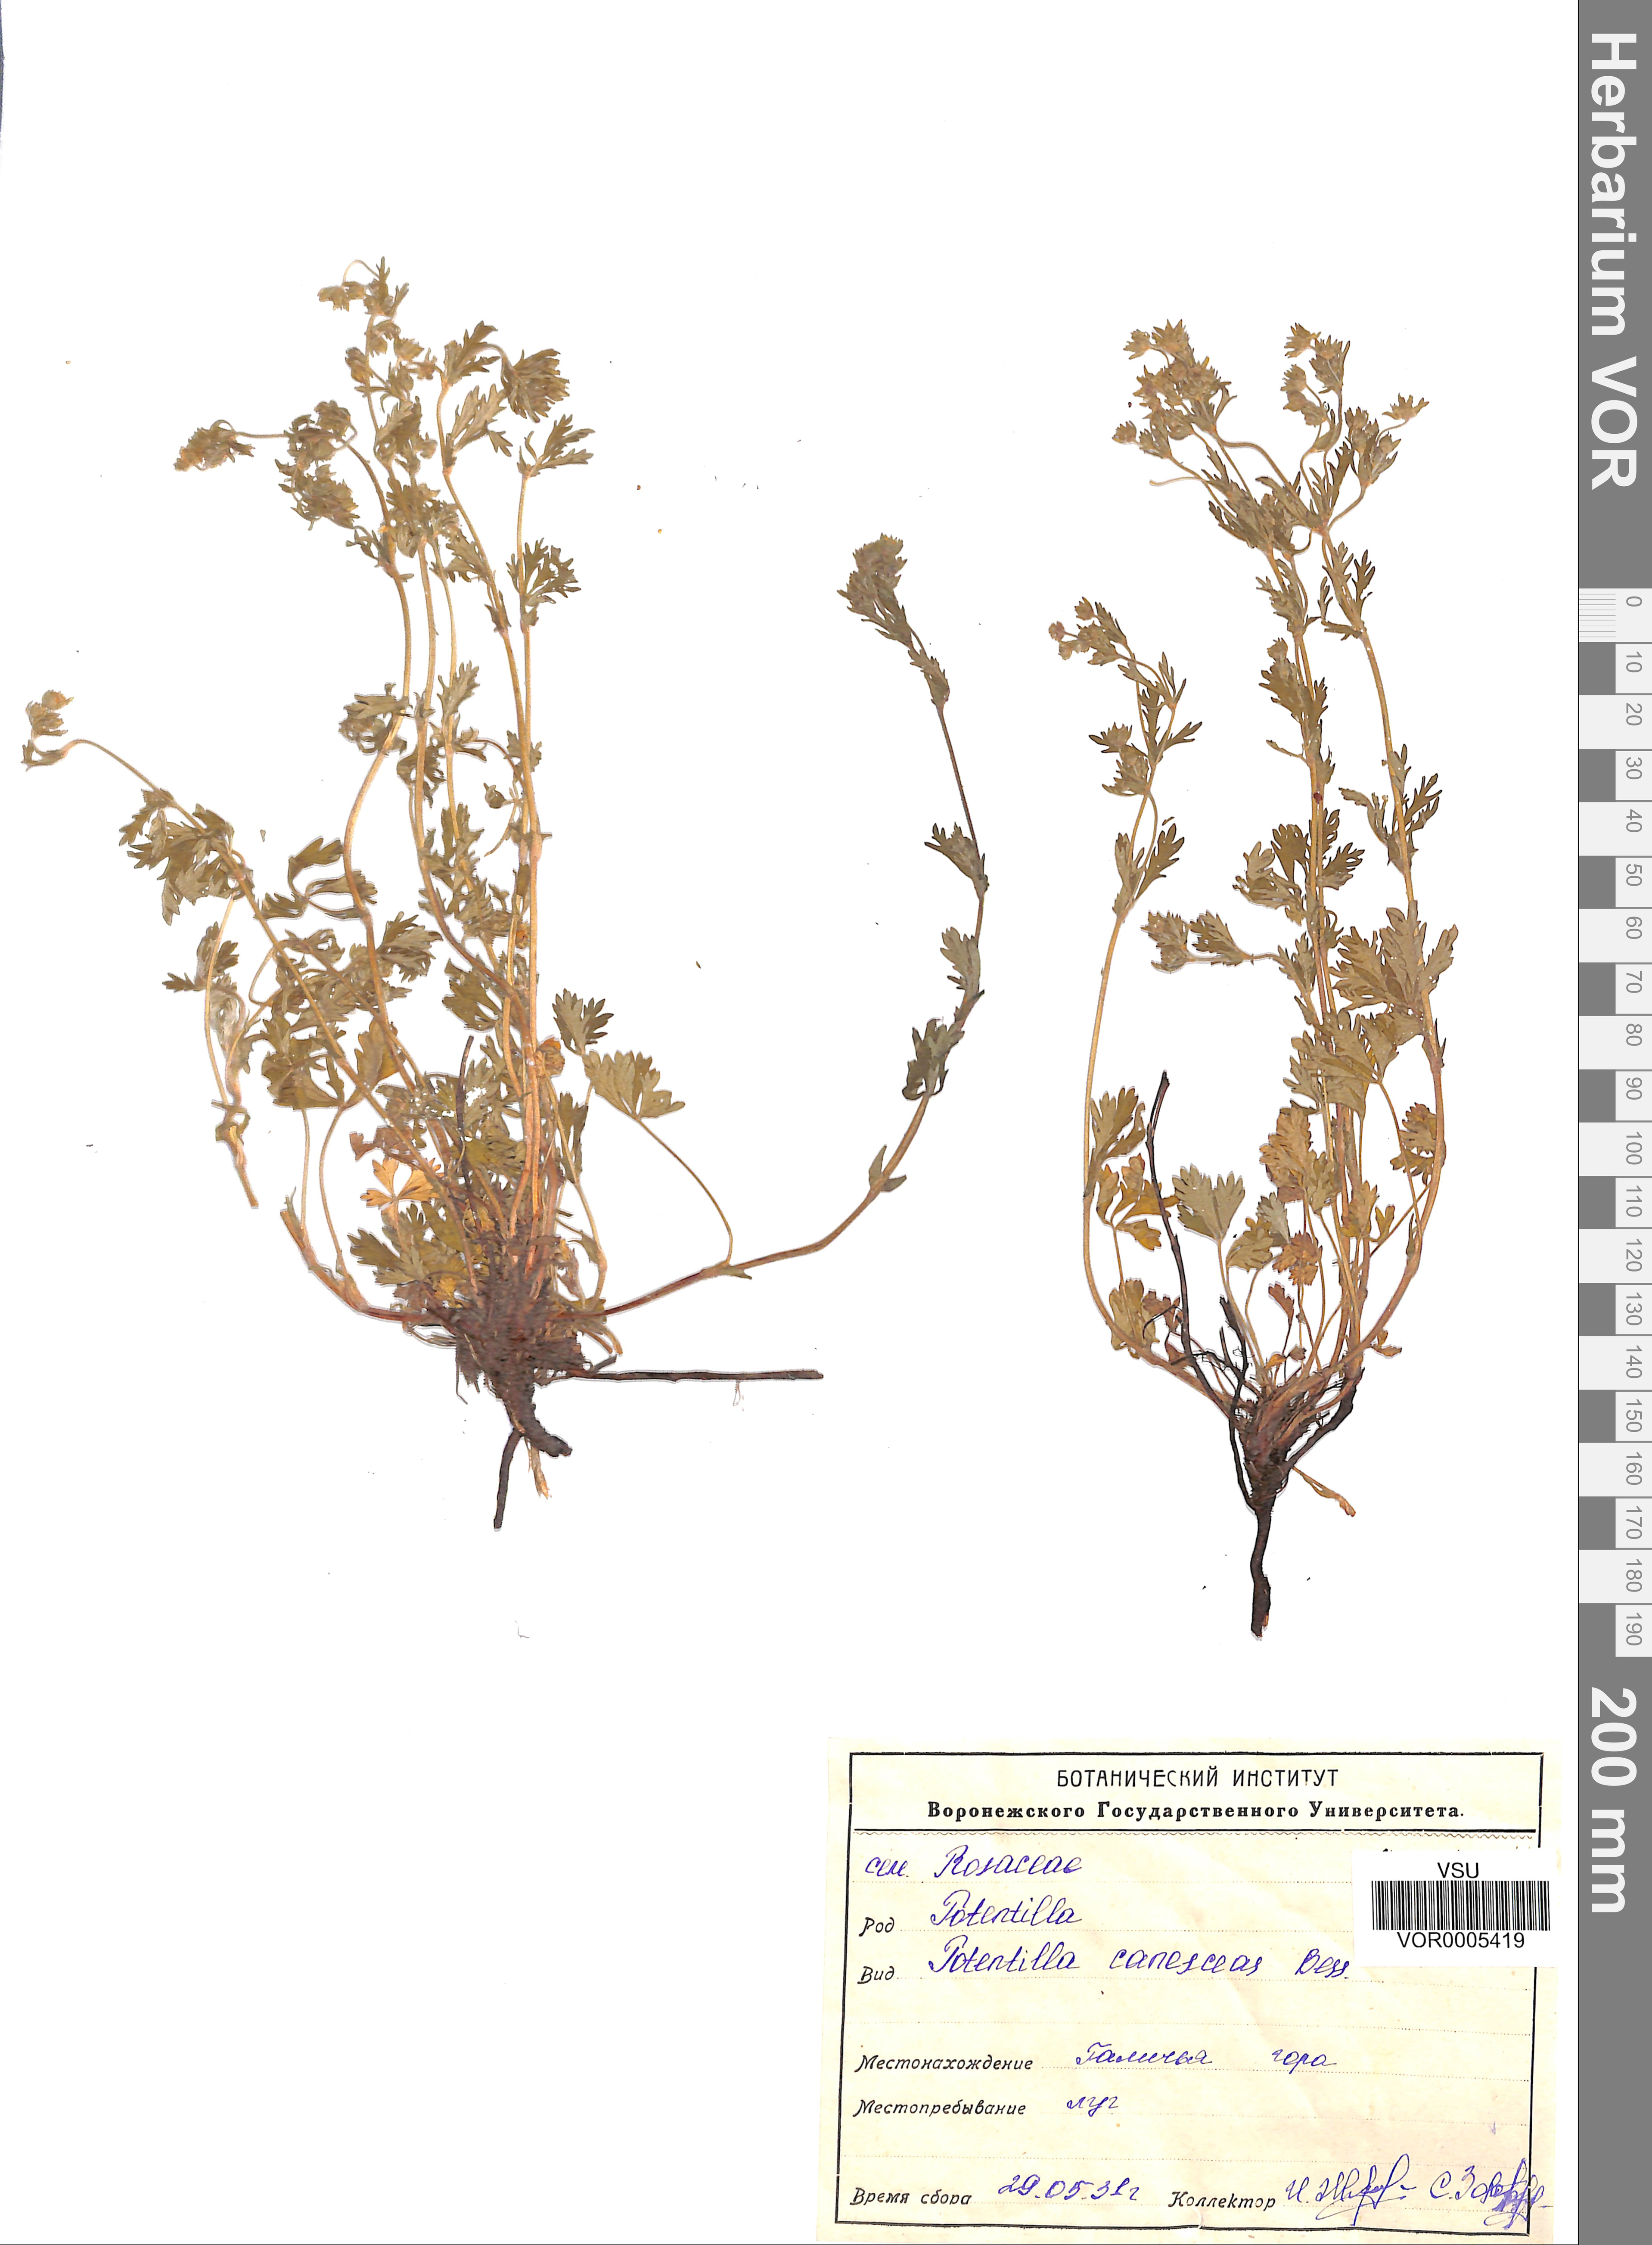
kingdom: Plantae
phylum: Tracheophyta
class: Magnoliopsida
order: Rosales
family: Rosaceae
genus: Potentilla
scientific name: Potentilla inclinata
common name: Grey cinquefoil
